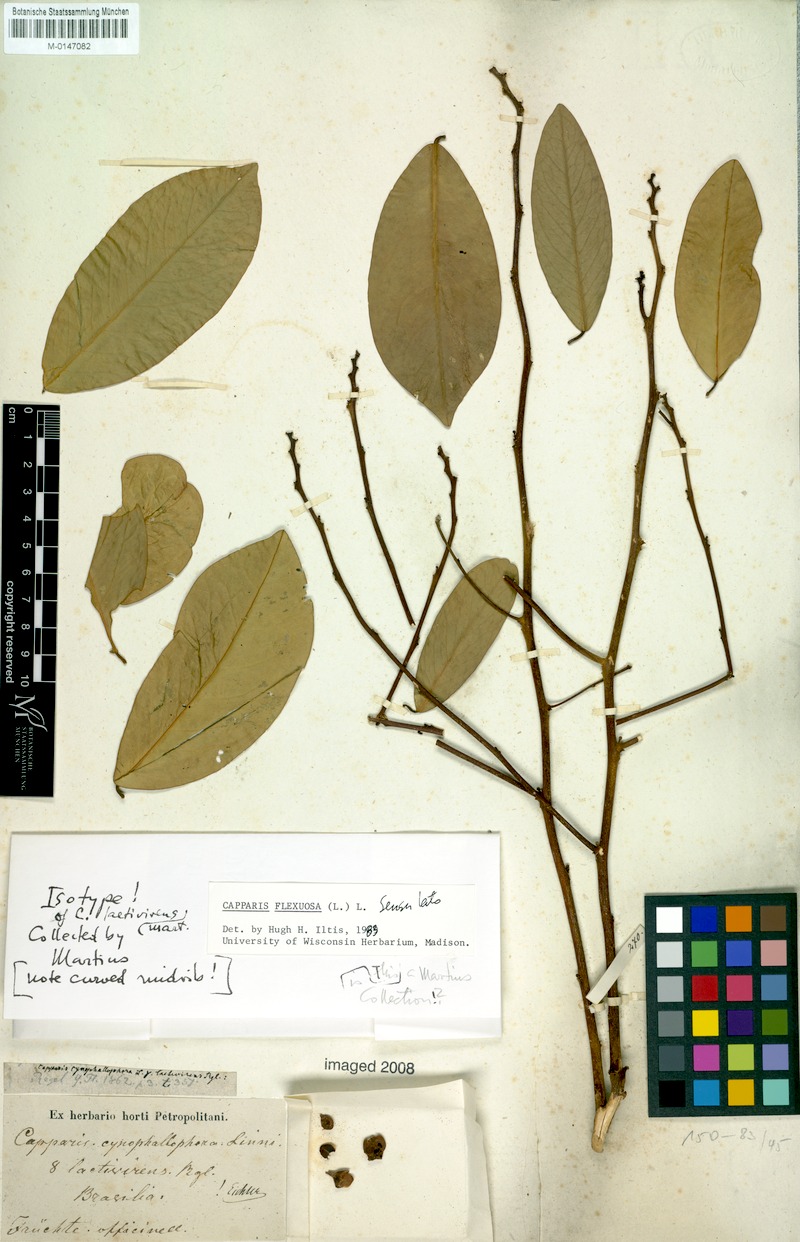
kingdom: Plantae
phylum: Tracheophyta
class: Magnoliopsida
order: Brassicales
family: Capparaceae
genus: Cynophalla
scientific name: Cynophalla flexuosa
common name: Capertree
